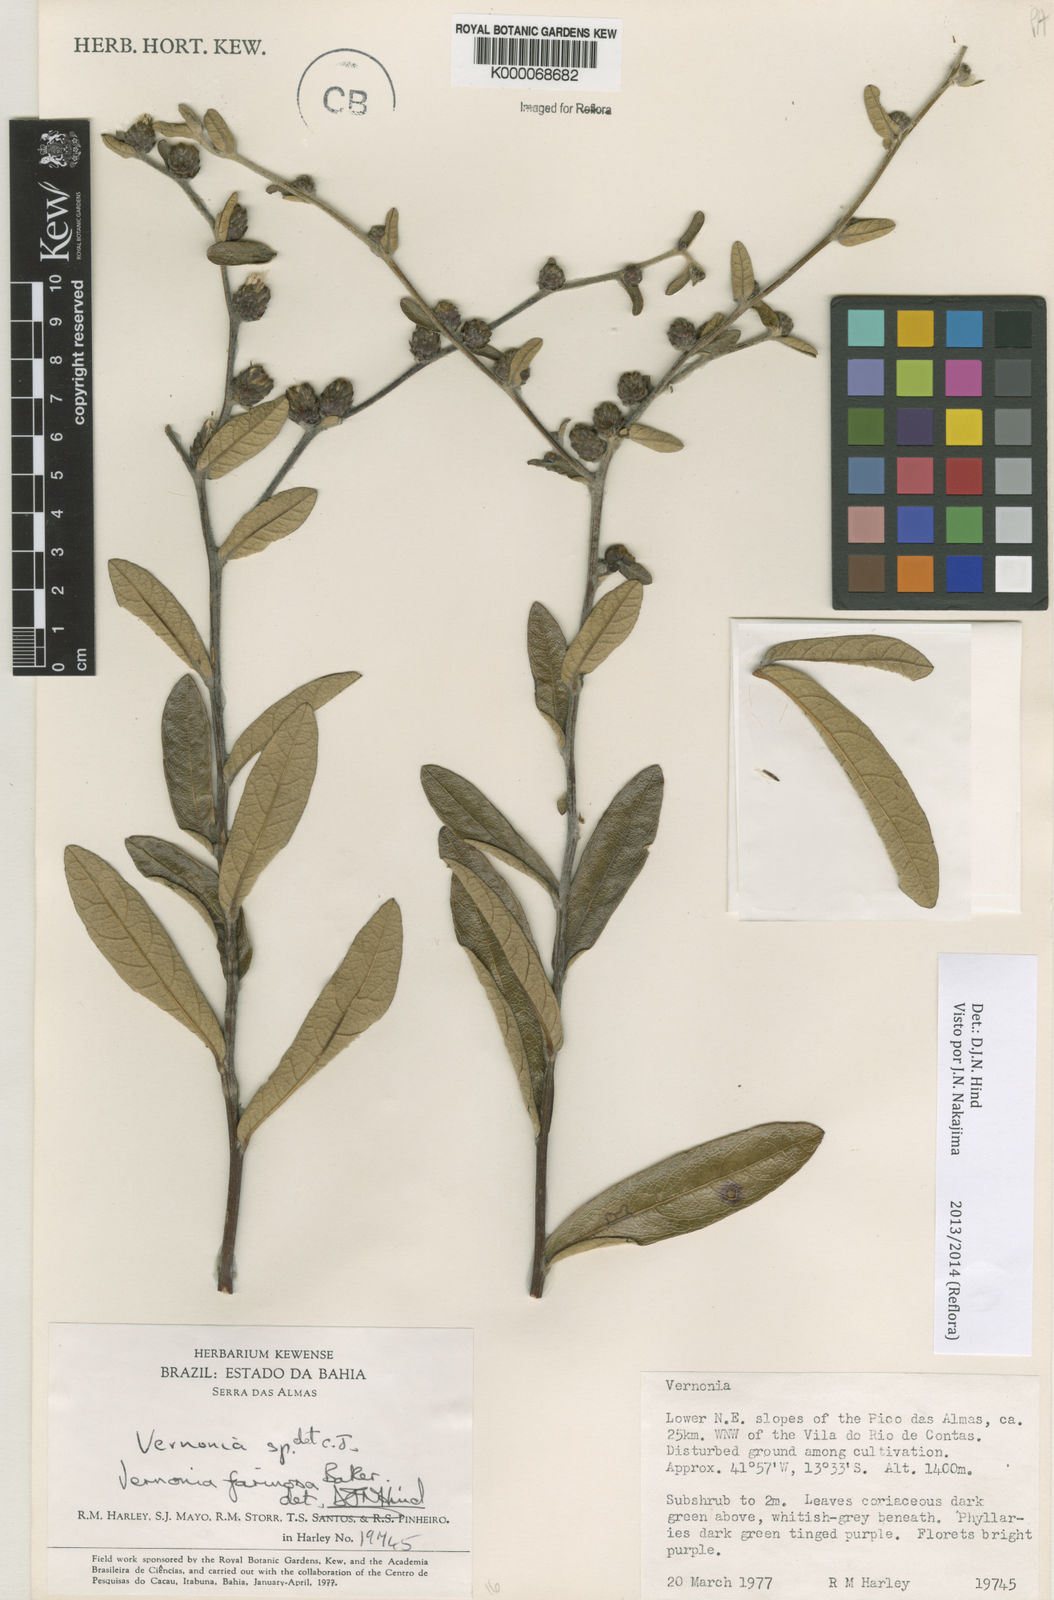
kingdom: Plantae
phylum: Tracheophyta
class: Magnoliopsida
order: Asterales
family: Asteraceae
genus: Lessingianthus
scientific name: Lessingianthus farinosus
